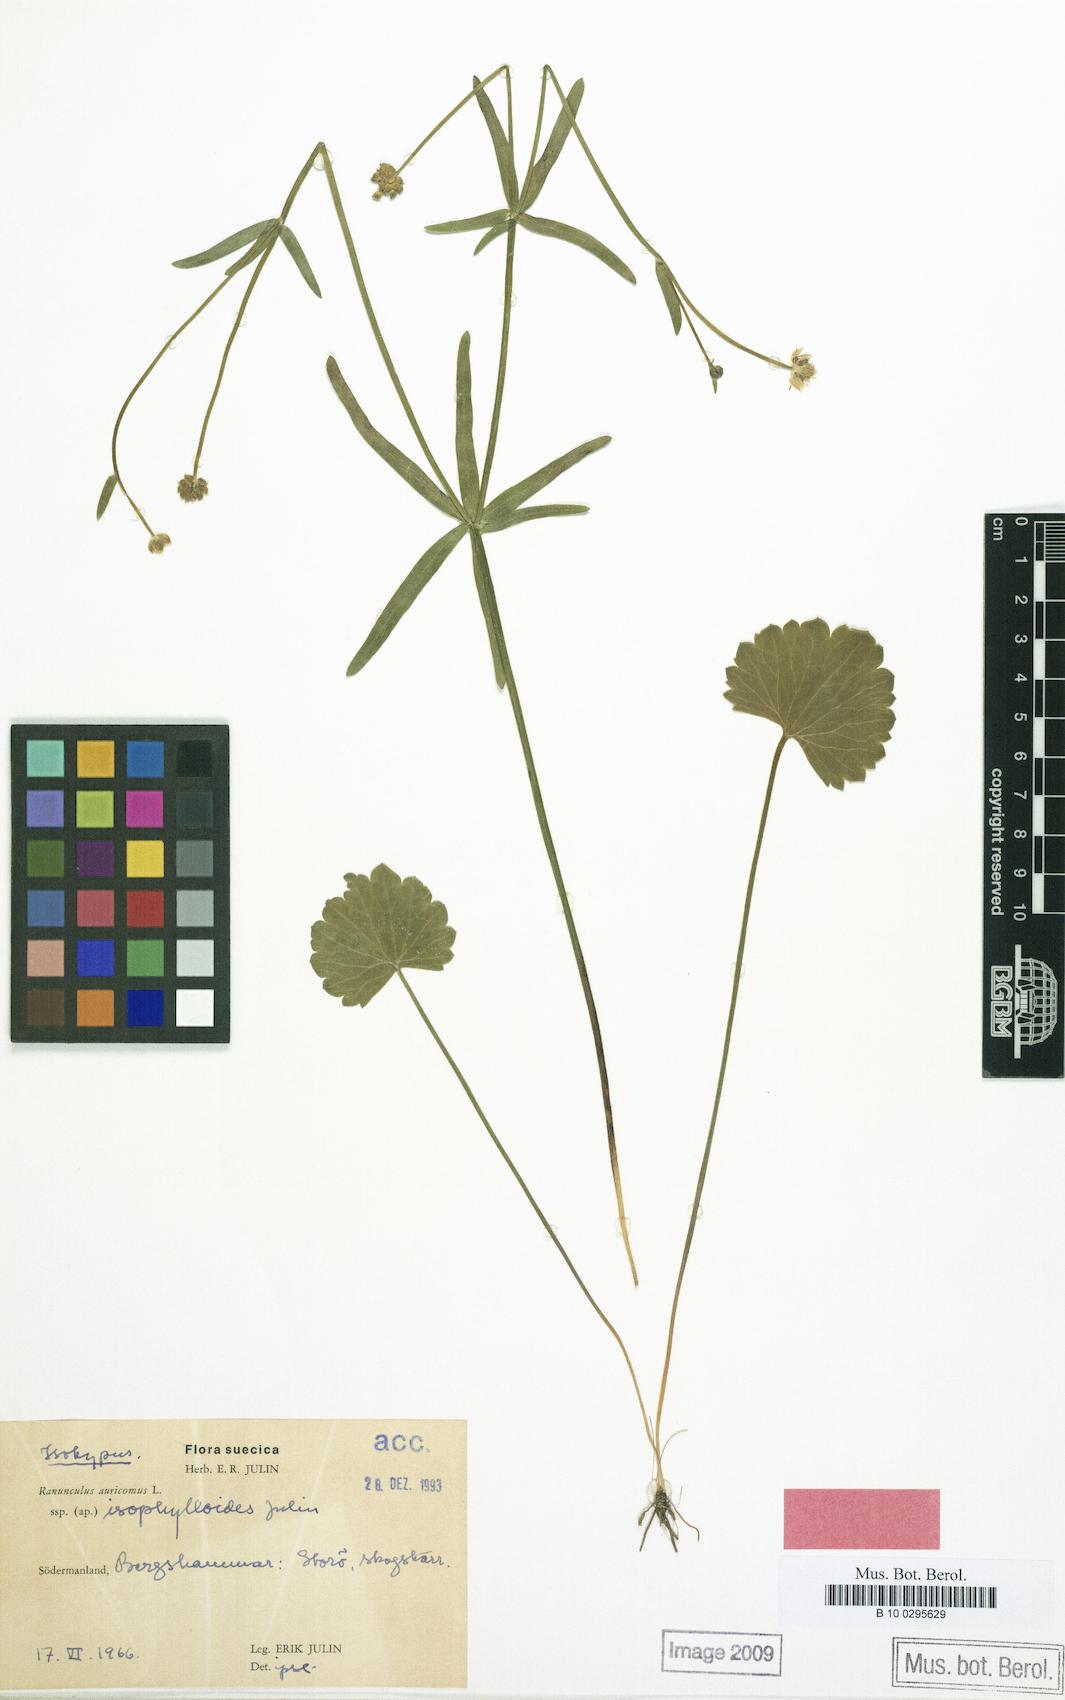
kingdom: Plantae
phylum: Tracheophyta
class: Magnoliopsida
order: Ranunculales
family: Ranunculaceae
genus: Ranunculus
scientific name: Ranunculus isophylloides
